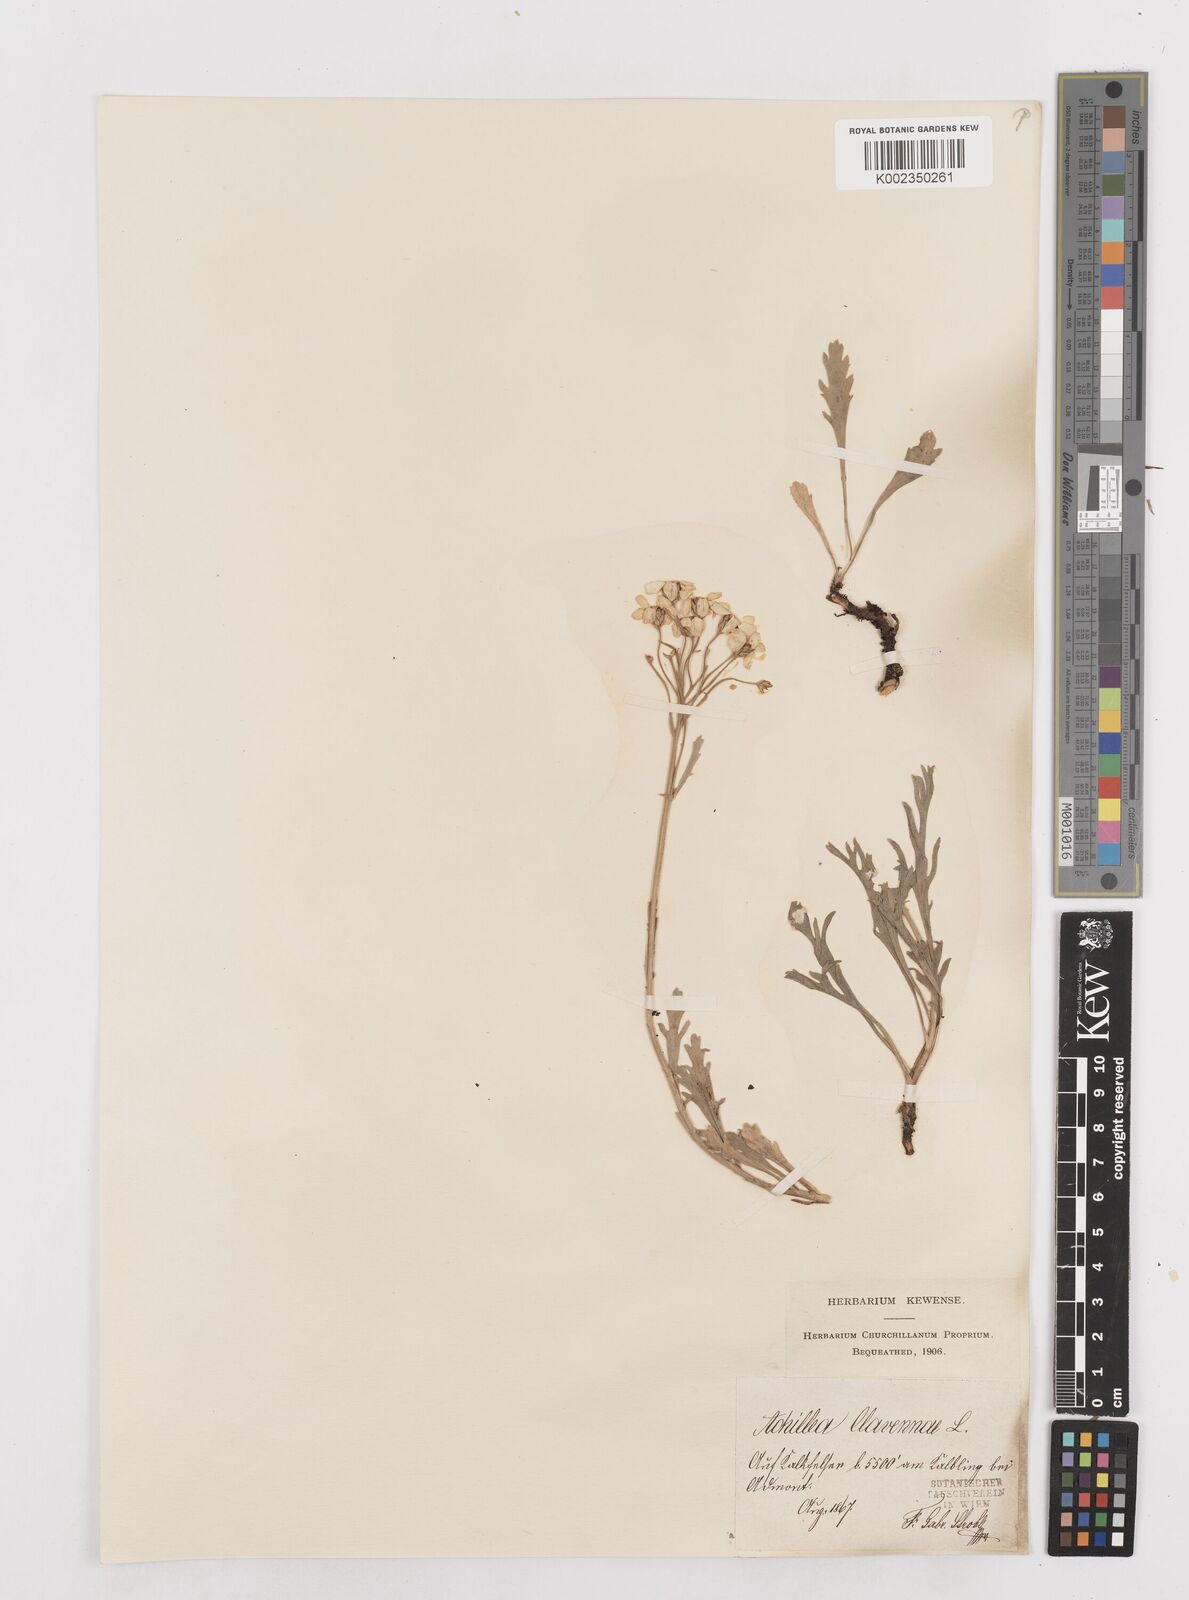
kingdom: Plantae
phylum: Tracheophyta
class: Magnoliopsida
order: Asterales
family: Asteraceae
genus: Achillea
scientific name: Achillea clavennae
